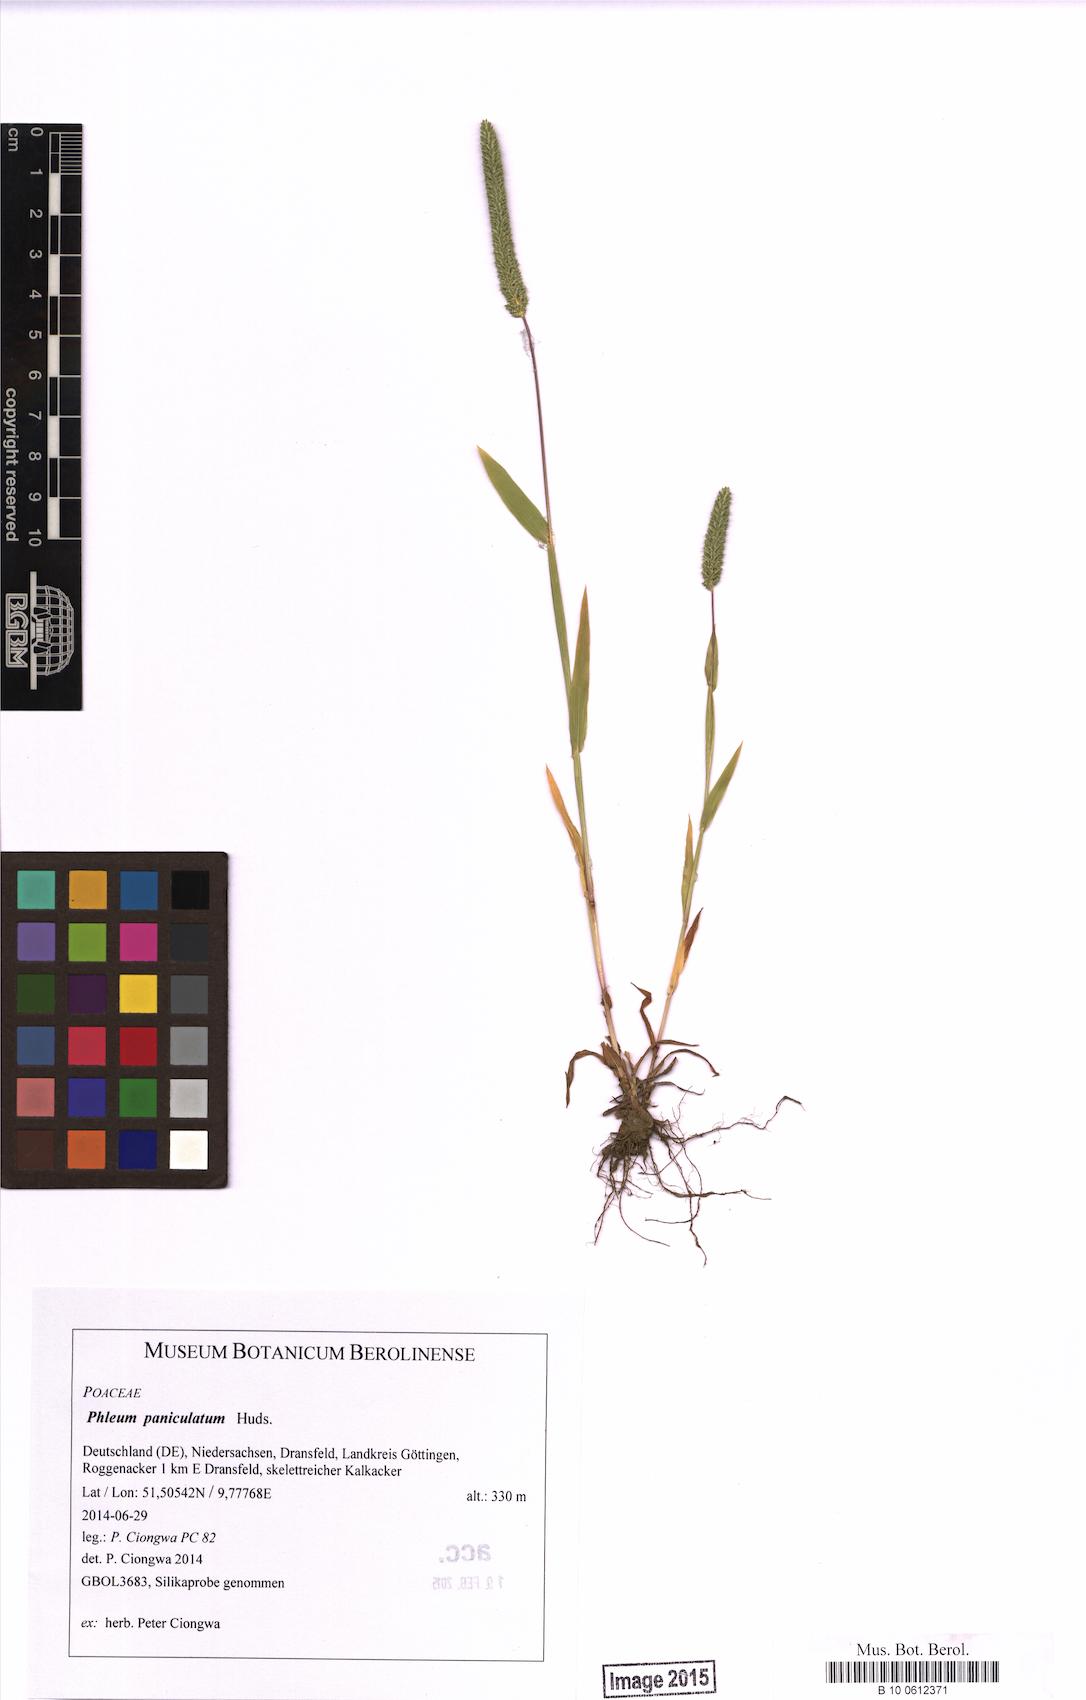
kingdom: Plantae
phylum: Tracheophyta
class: Liliopsida
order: Poales
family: Poaceae
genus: Phleum
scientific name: Phleum paniculatum
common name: British timothy
